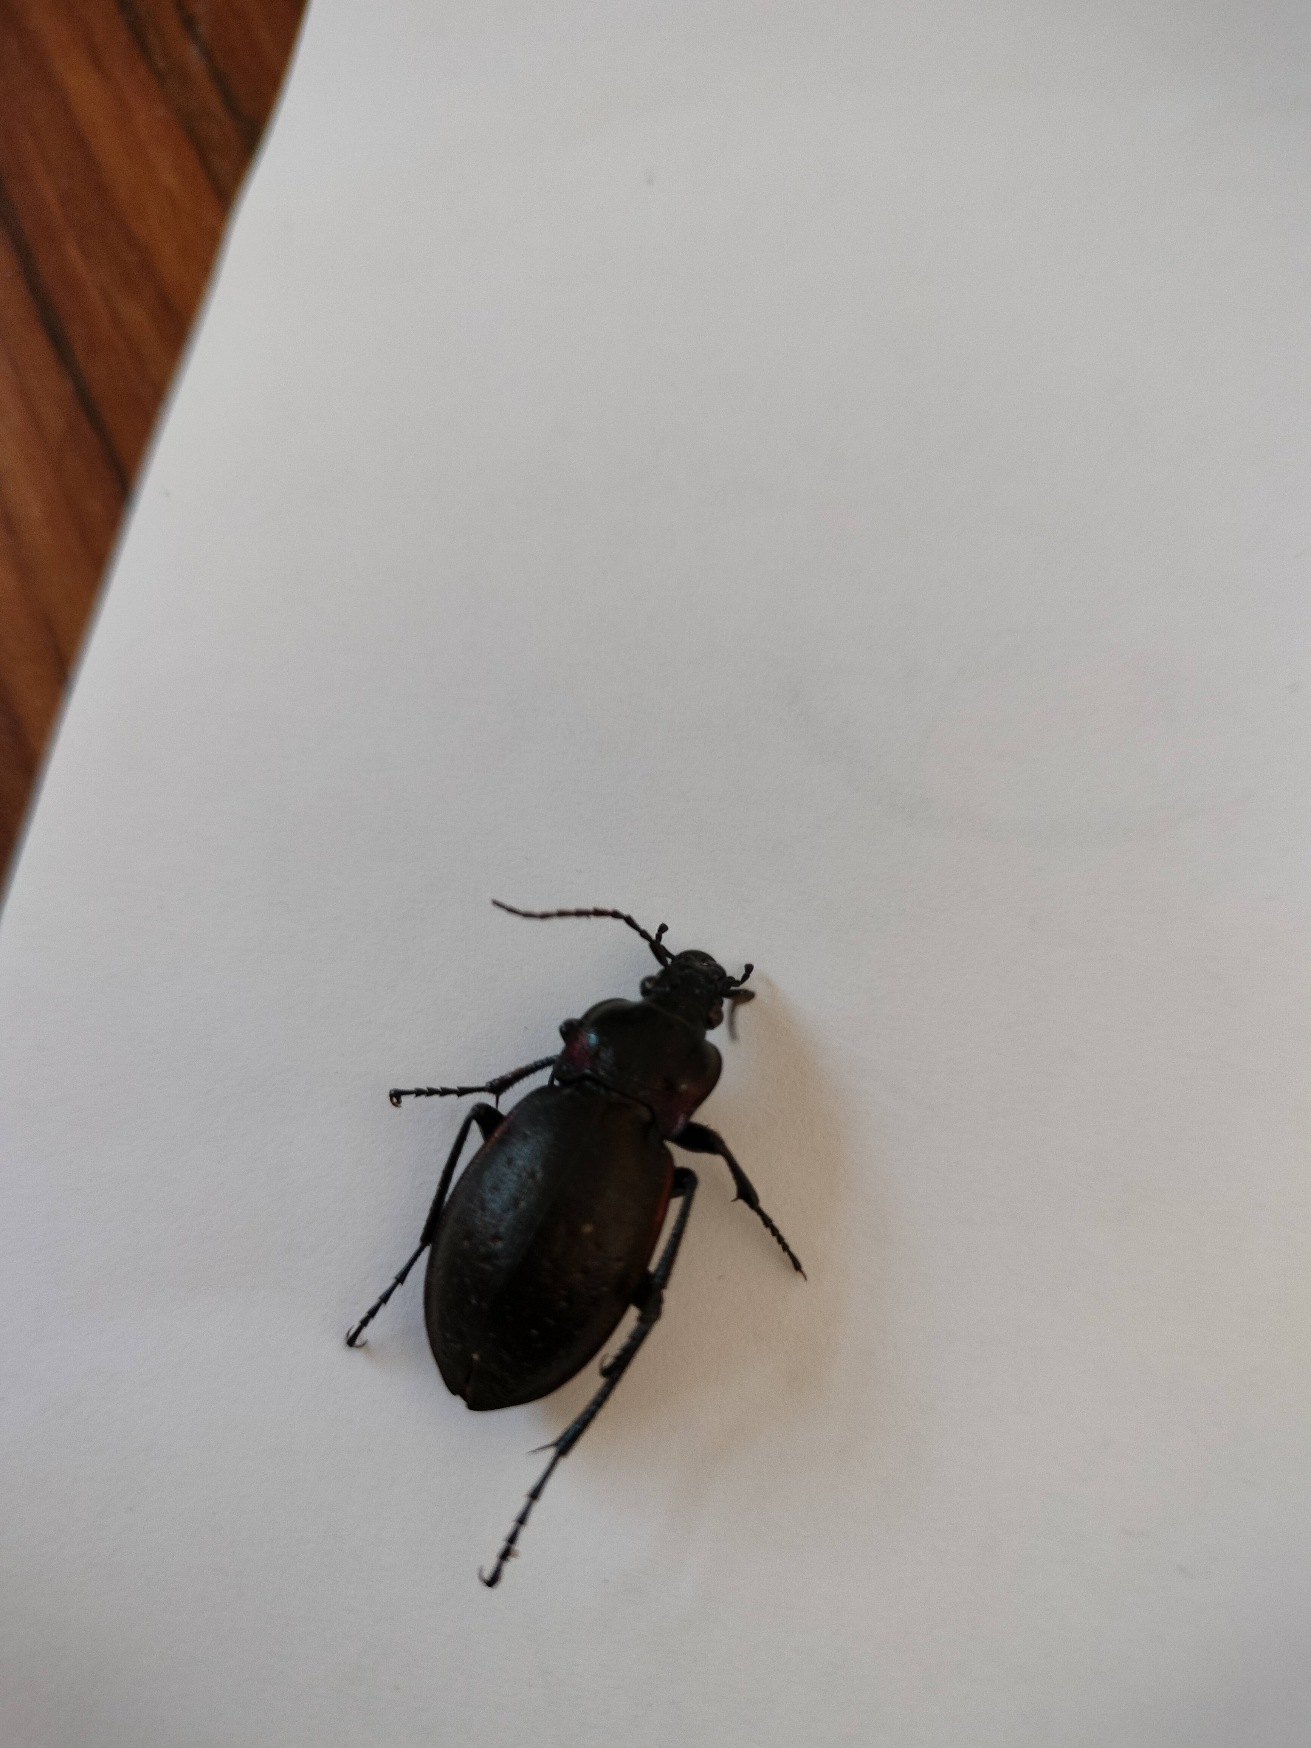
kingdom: Animalia
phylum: Arthropoda
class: Insecta
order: Coleoptera
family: Carabidae
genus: Carabus
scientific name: Carabus nemoralis
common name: Kratløber
